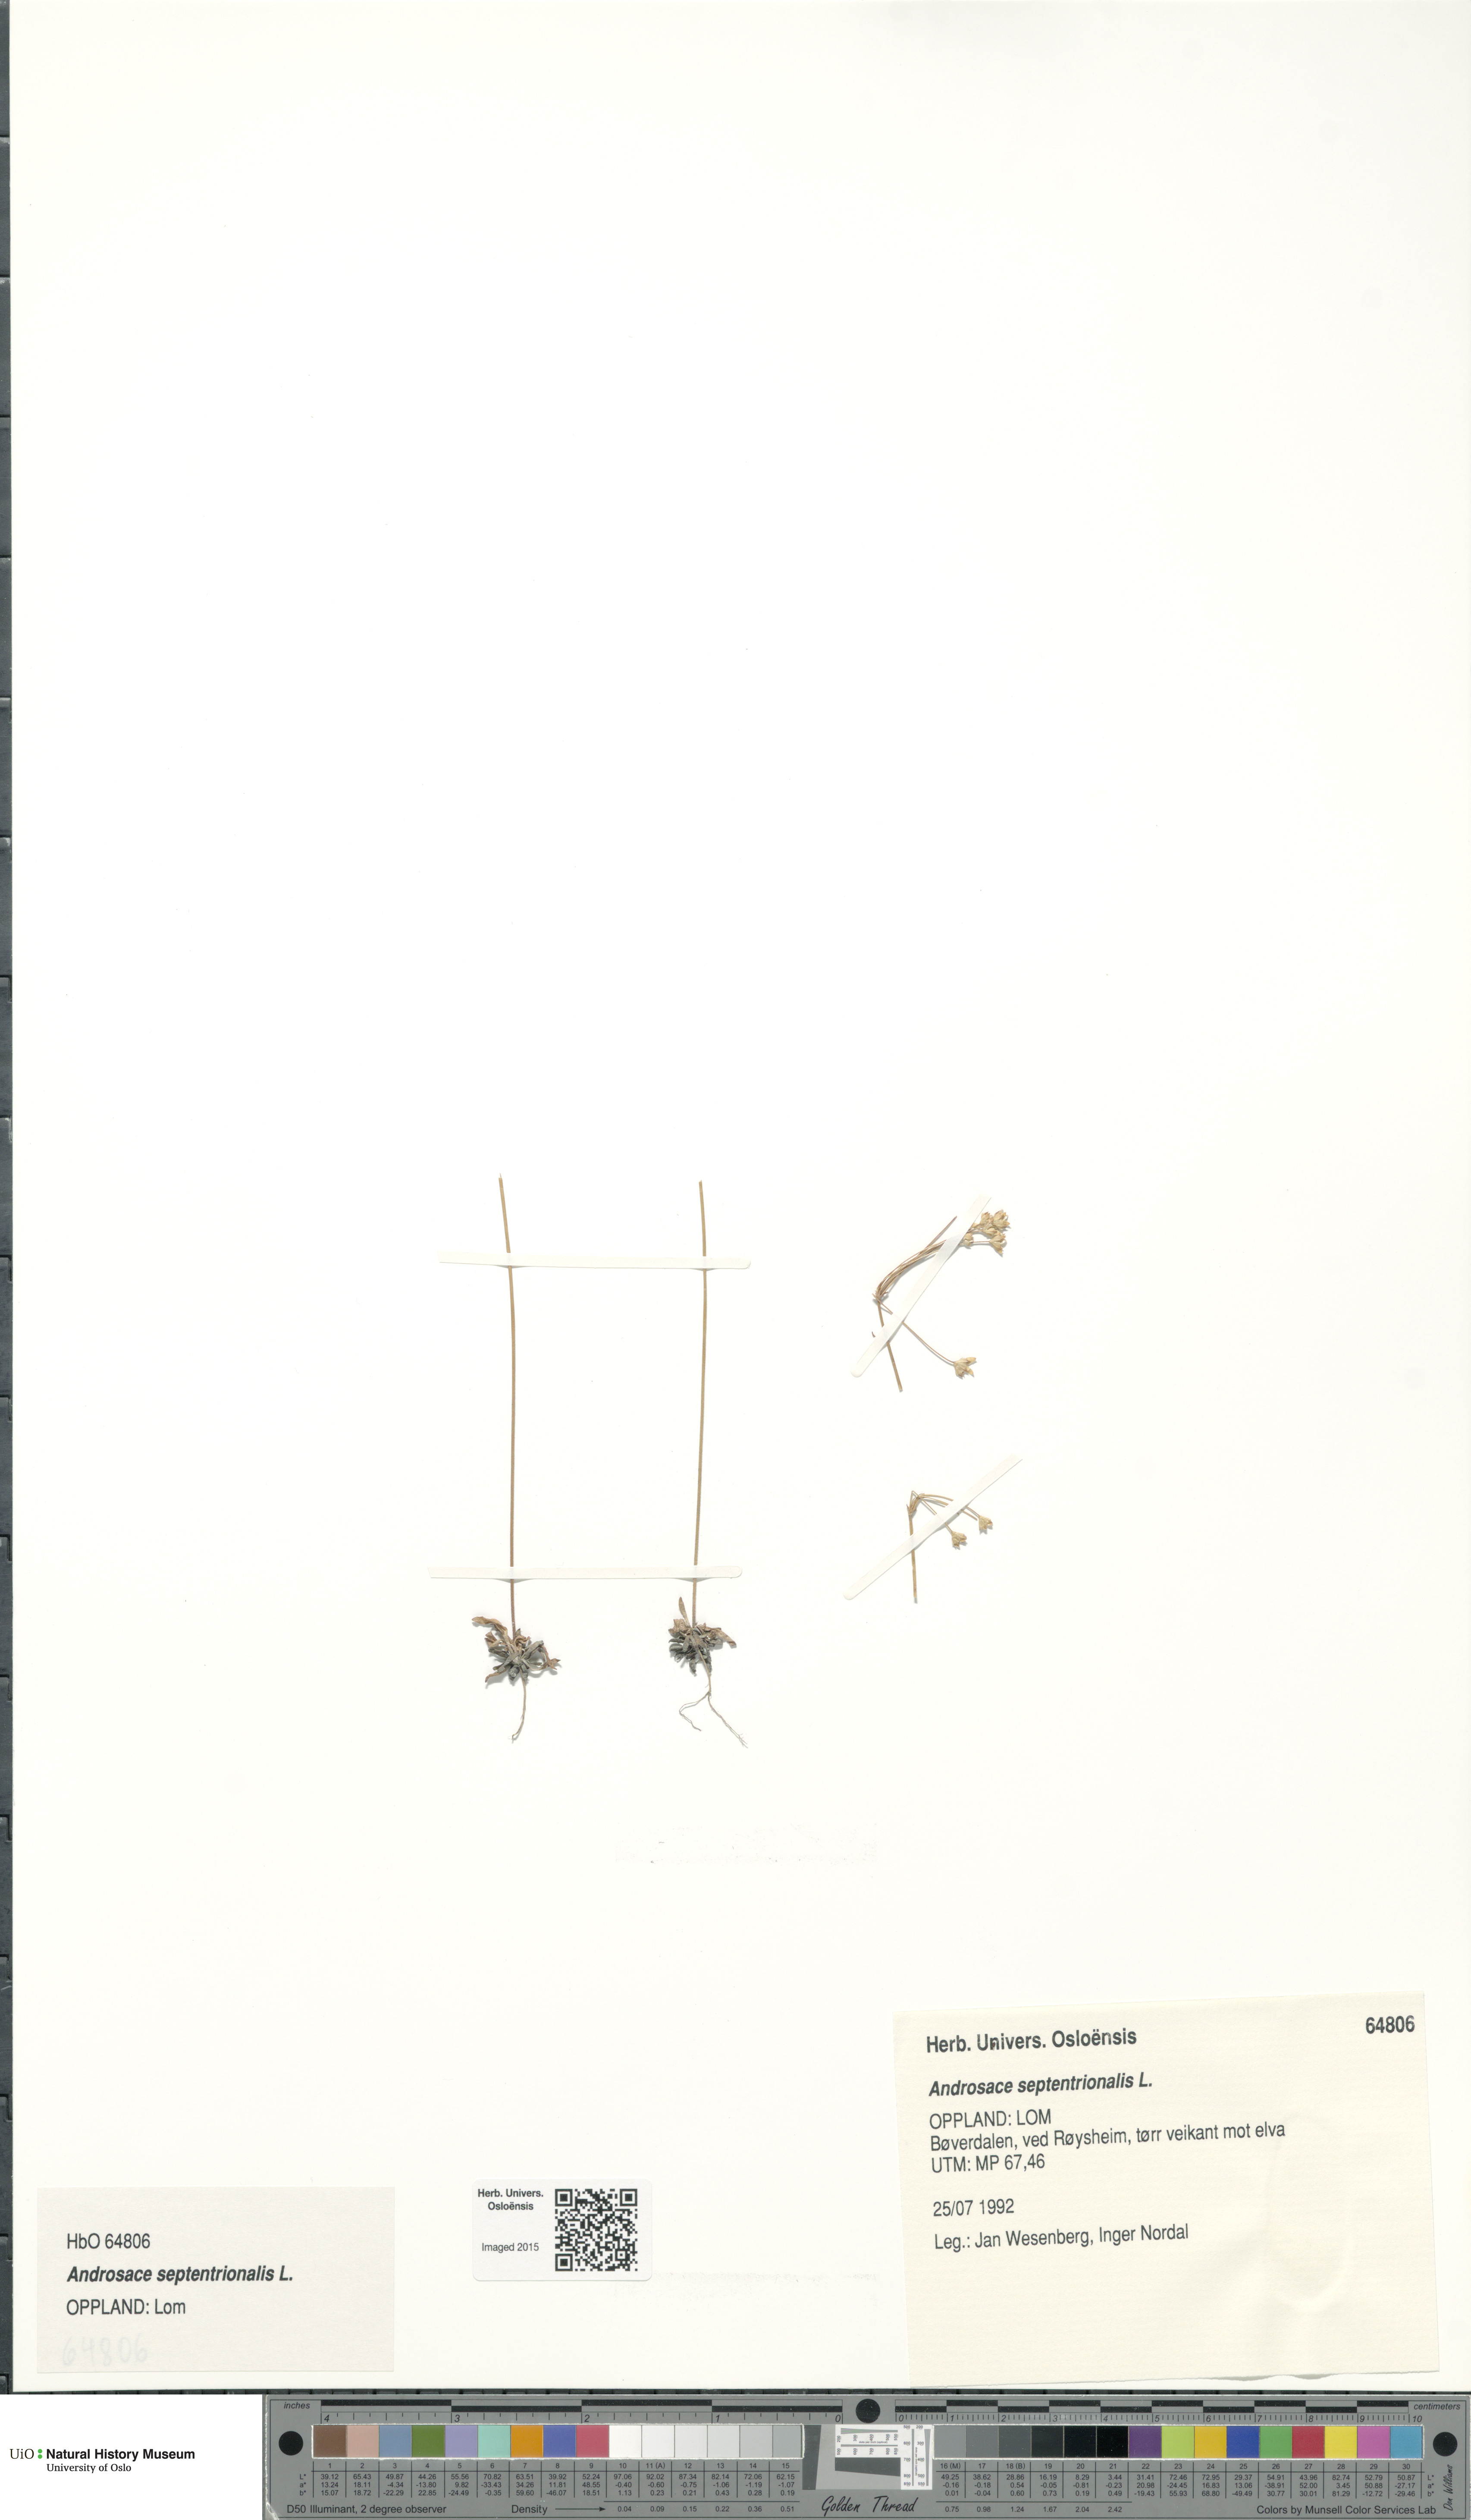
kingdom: Plantae
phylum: Tracheophyta
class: Magnoliopsida
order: Ericales
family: Primulaceae
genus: Androsace
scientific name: Androsace septentrionalis
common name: Hairy northern fairy-candelabra
